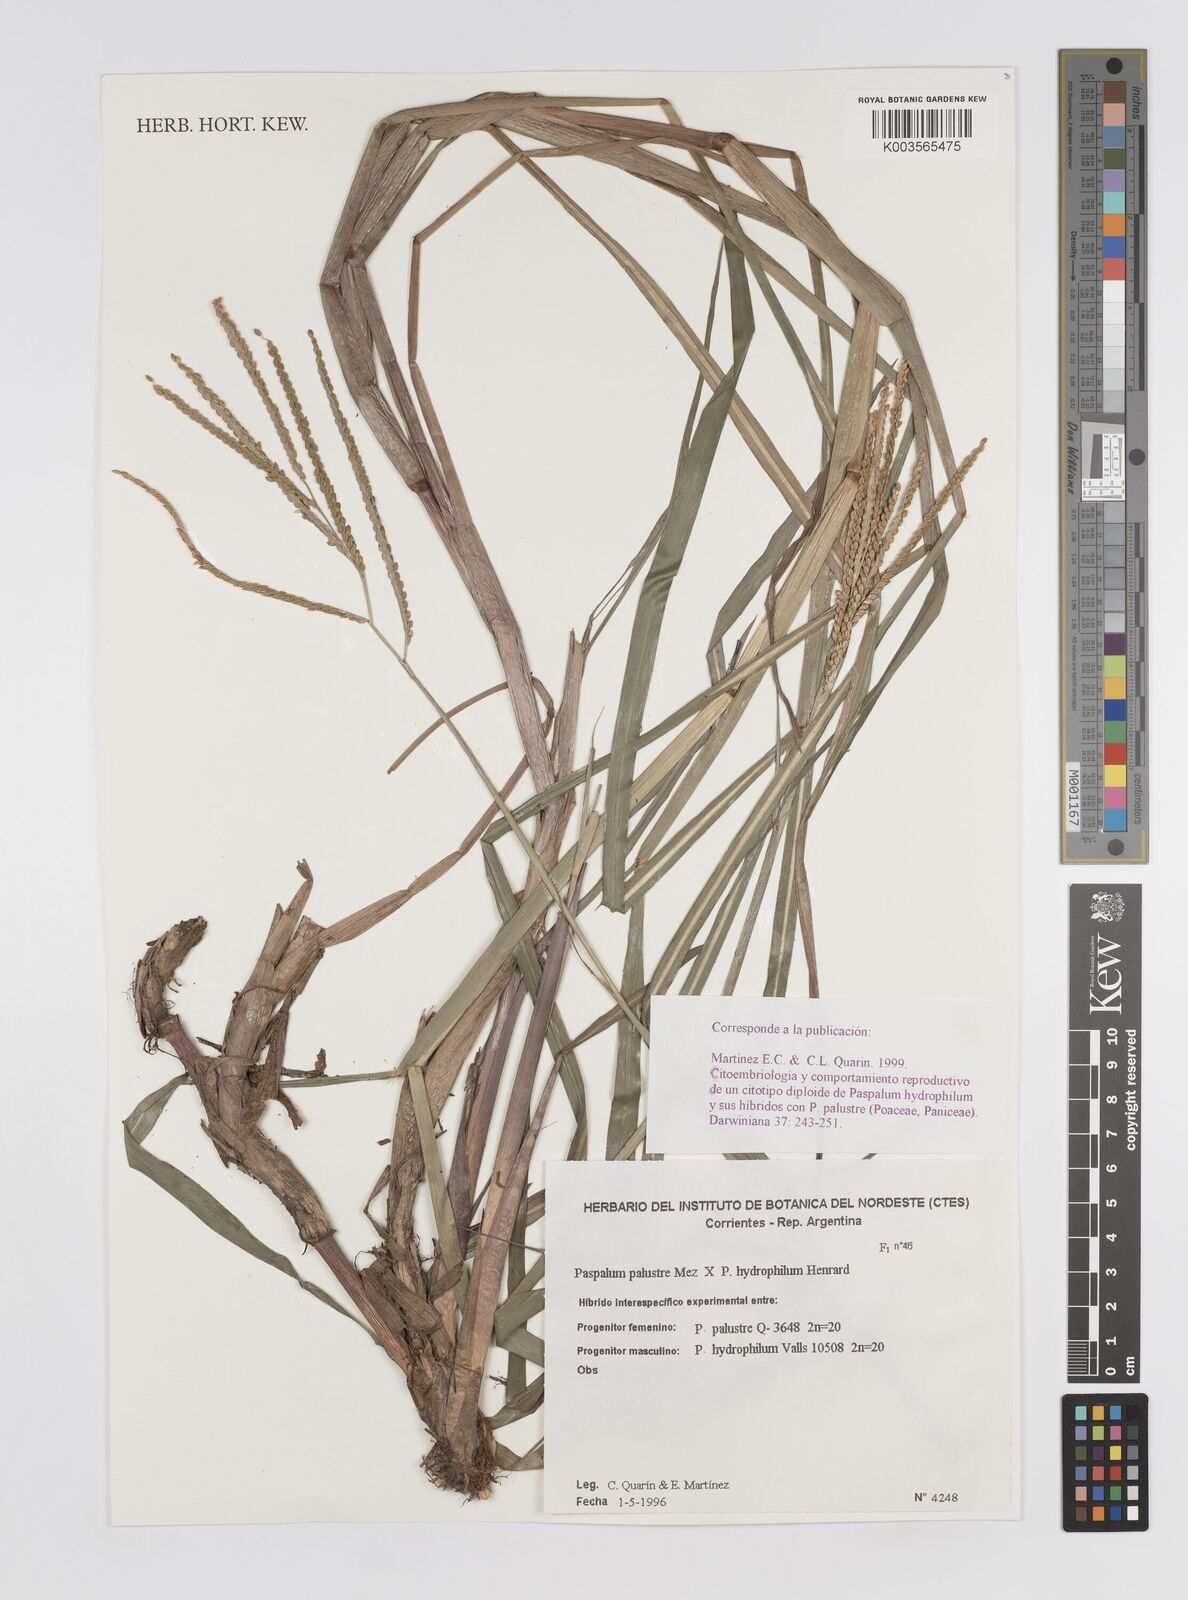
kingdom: Plantae
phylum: Tracheophyta
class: Liliopsida
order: Poales
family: Poaceae
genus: Paspalum
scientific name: Paspalum wrightii
